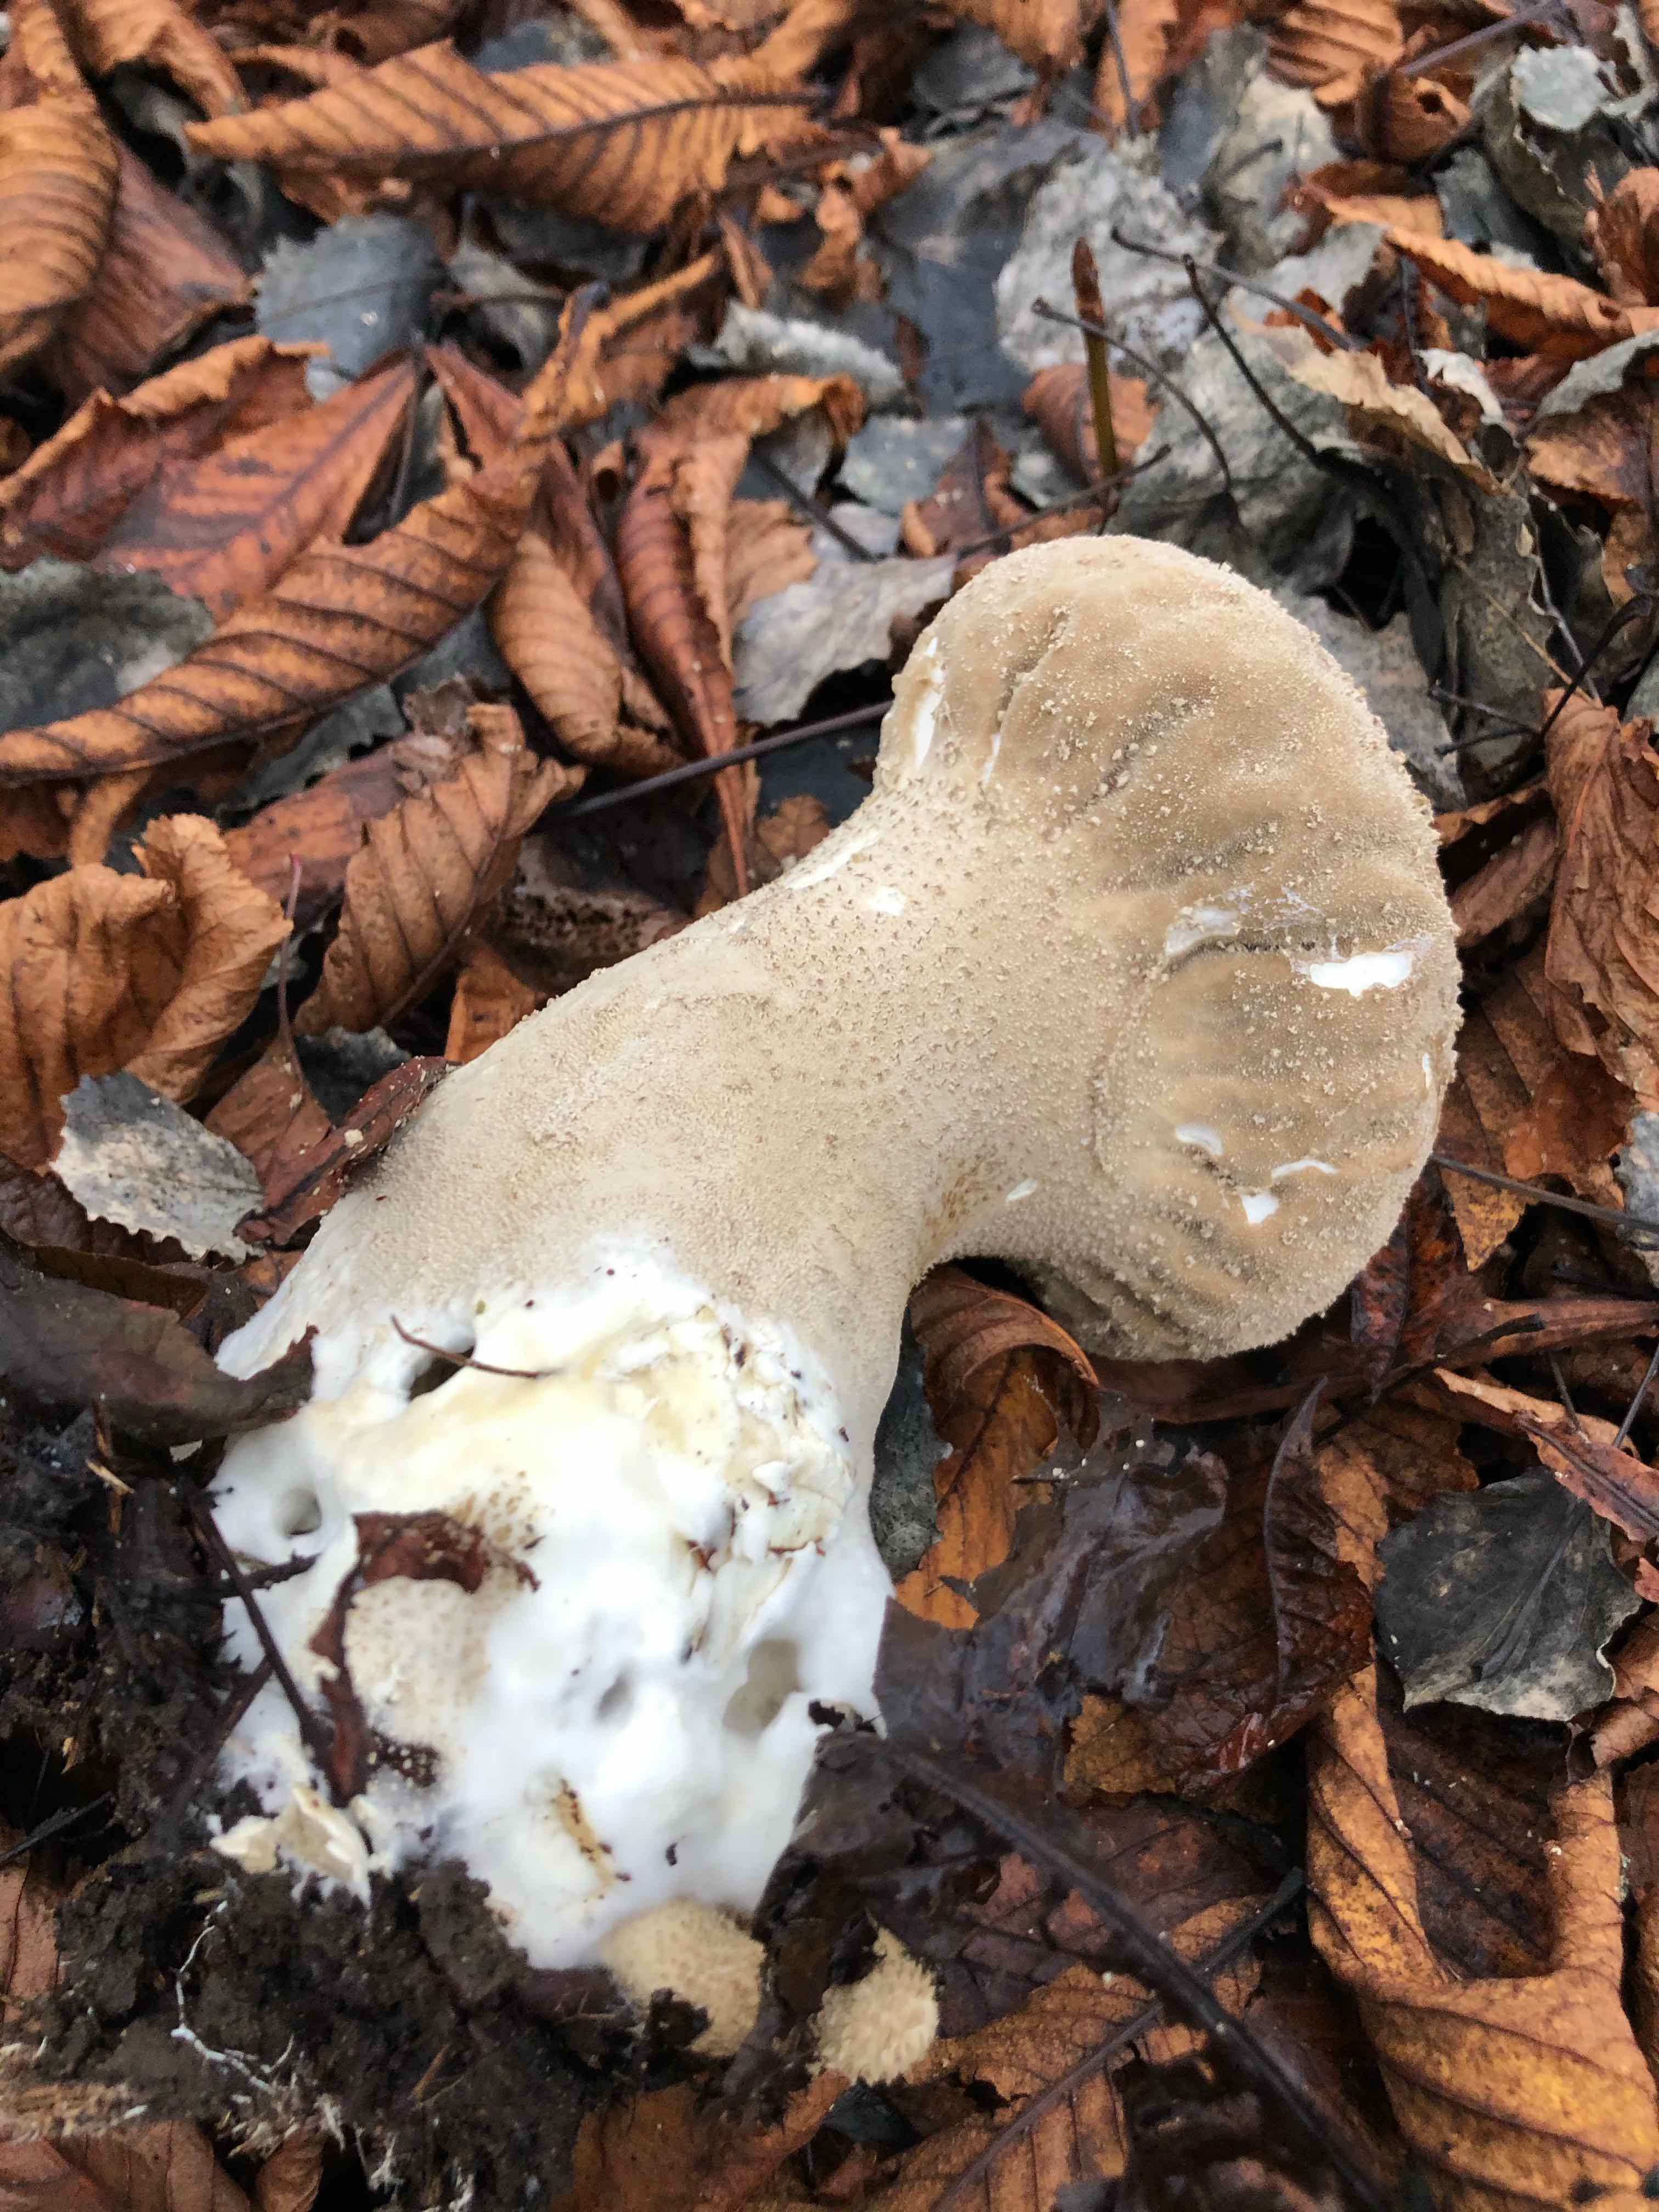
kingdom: Fungi
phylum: Basidiomycota
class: Agaricomycetes
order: Agaricales
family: Lycoperdaceae
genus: Lycoperdon
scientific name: Lycoperdon excipuliforme
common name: højstokket støvbold
